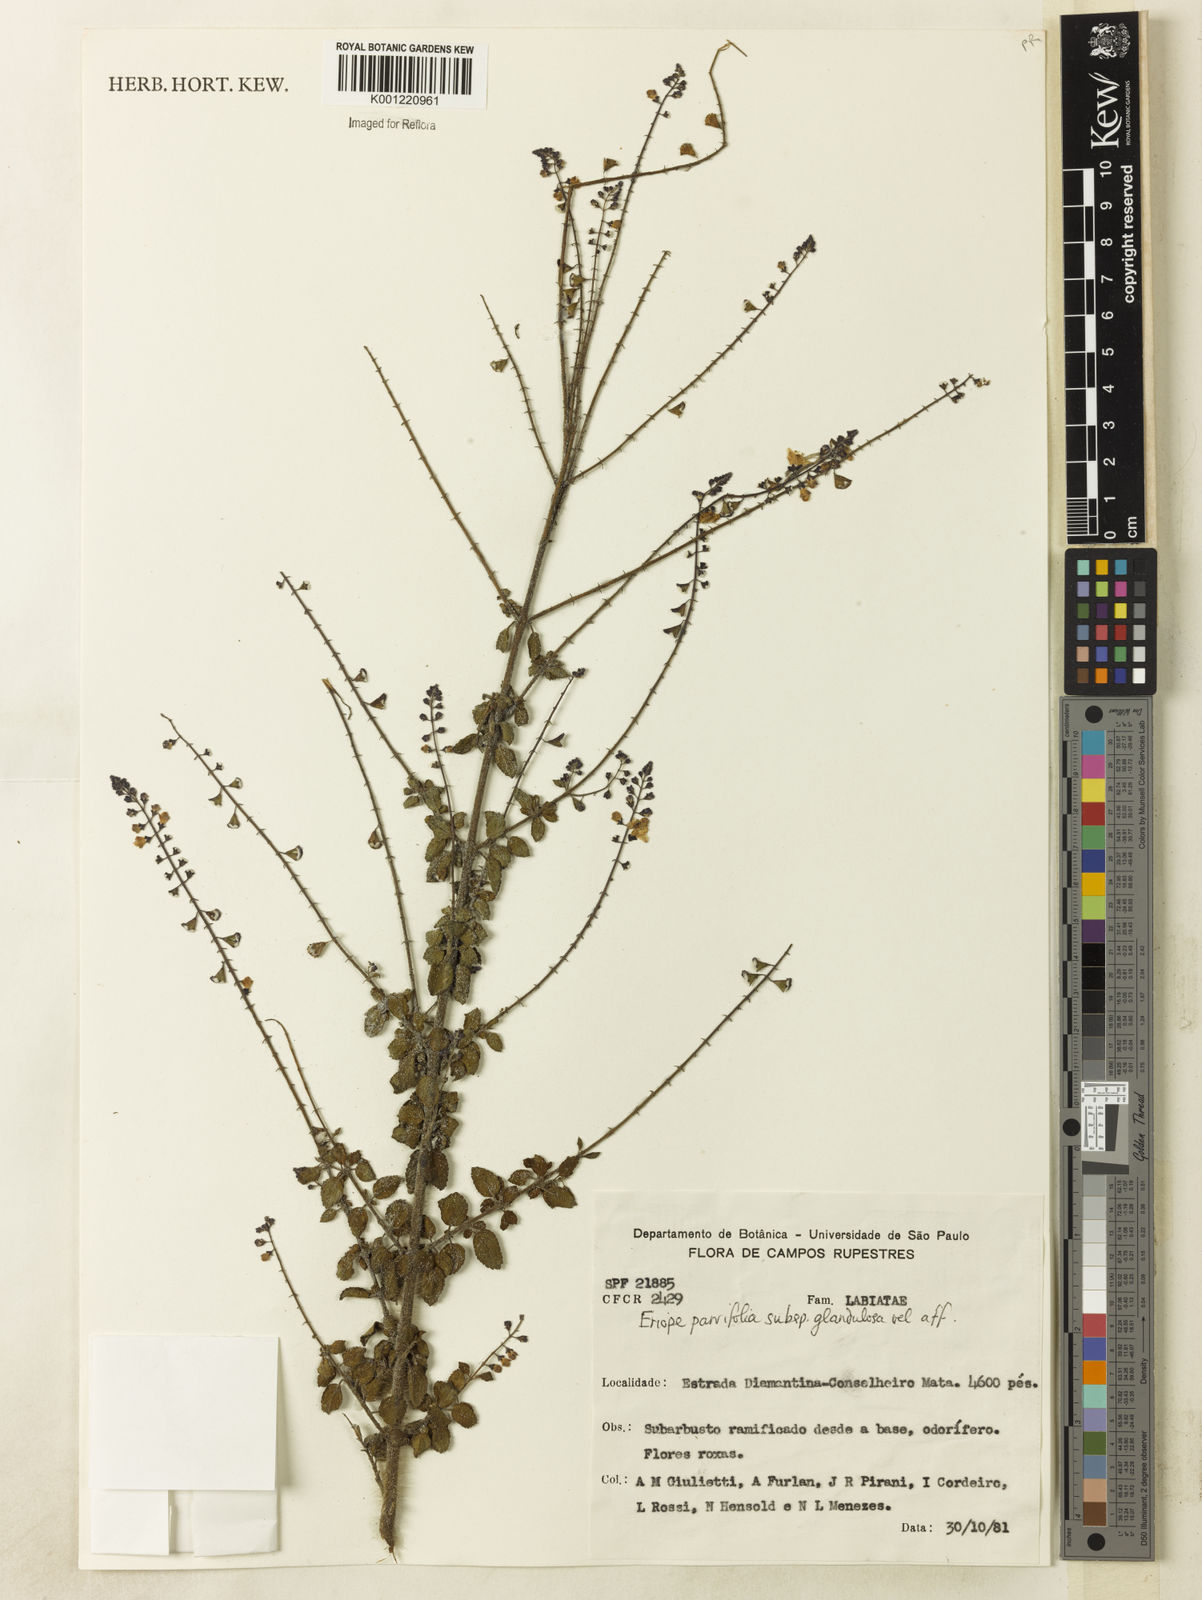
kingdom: Plantae
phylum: Tracheophyta
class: Magnoliopsida
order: Lamiales
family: Lamiaceae
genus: Eriope
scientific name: Eriope glandulosa
